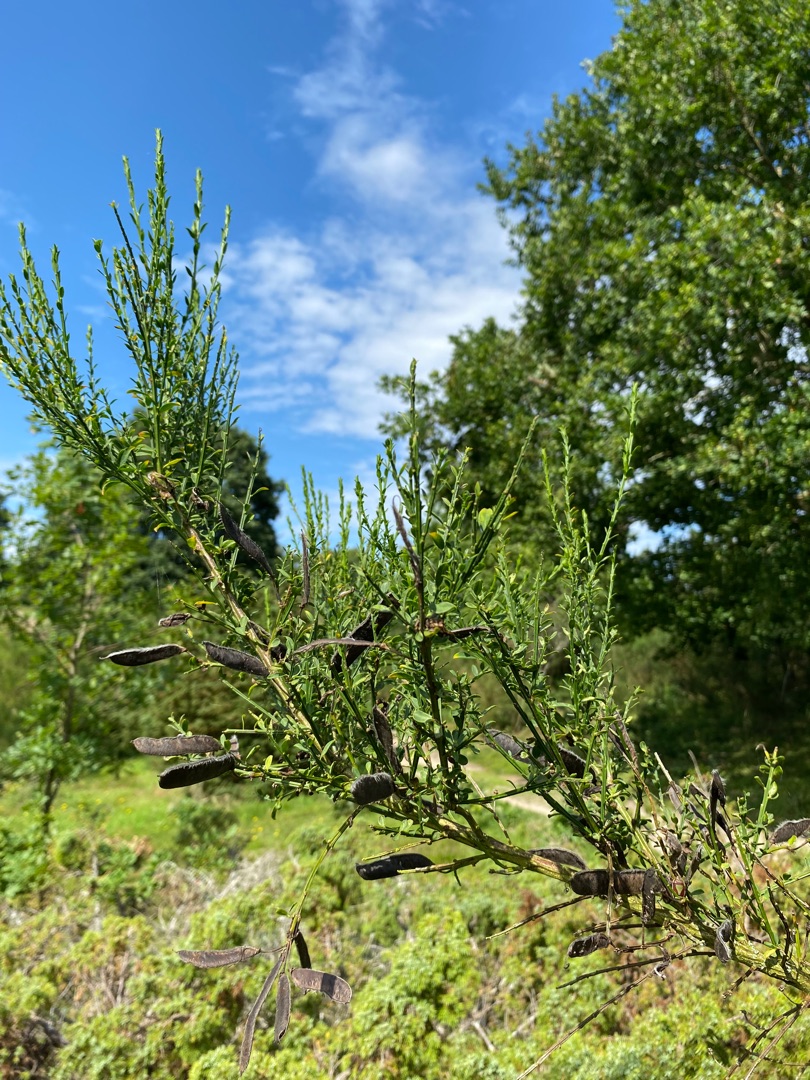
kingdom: Plantae
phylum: Tracheophyta
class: Magnoliopsida
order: Fabales
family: Fabaceae
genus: Cytisus
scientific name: Cytisus scoparius
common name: Almindelig gyvel
